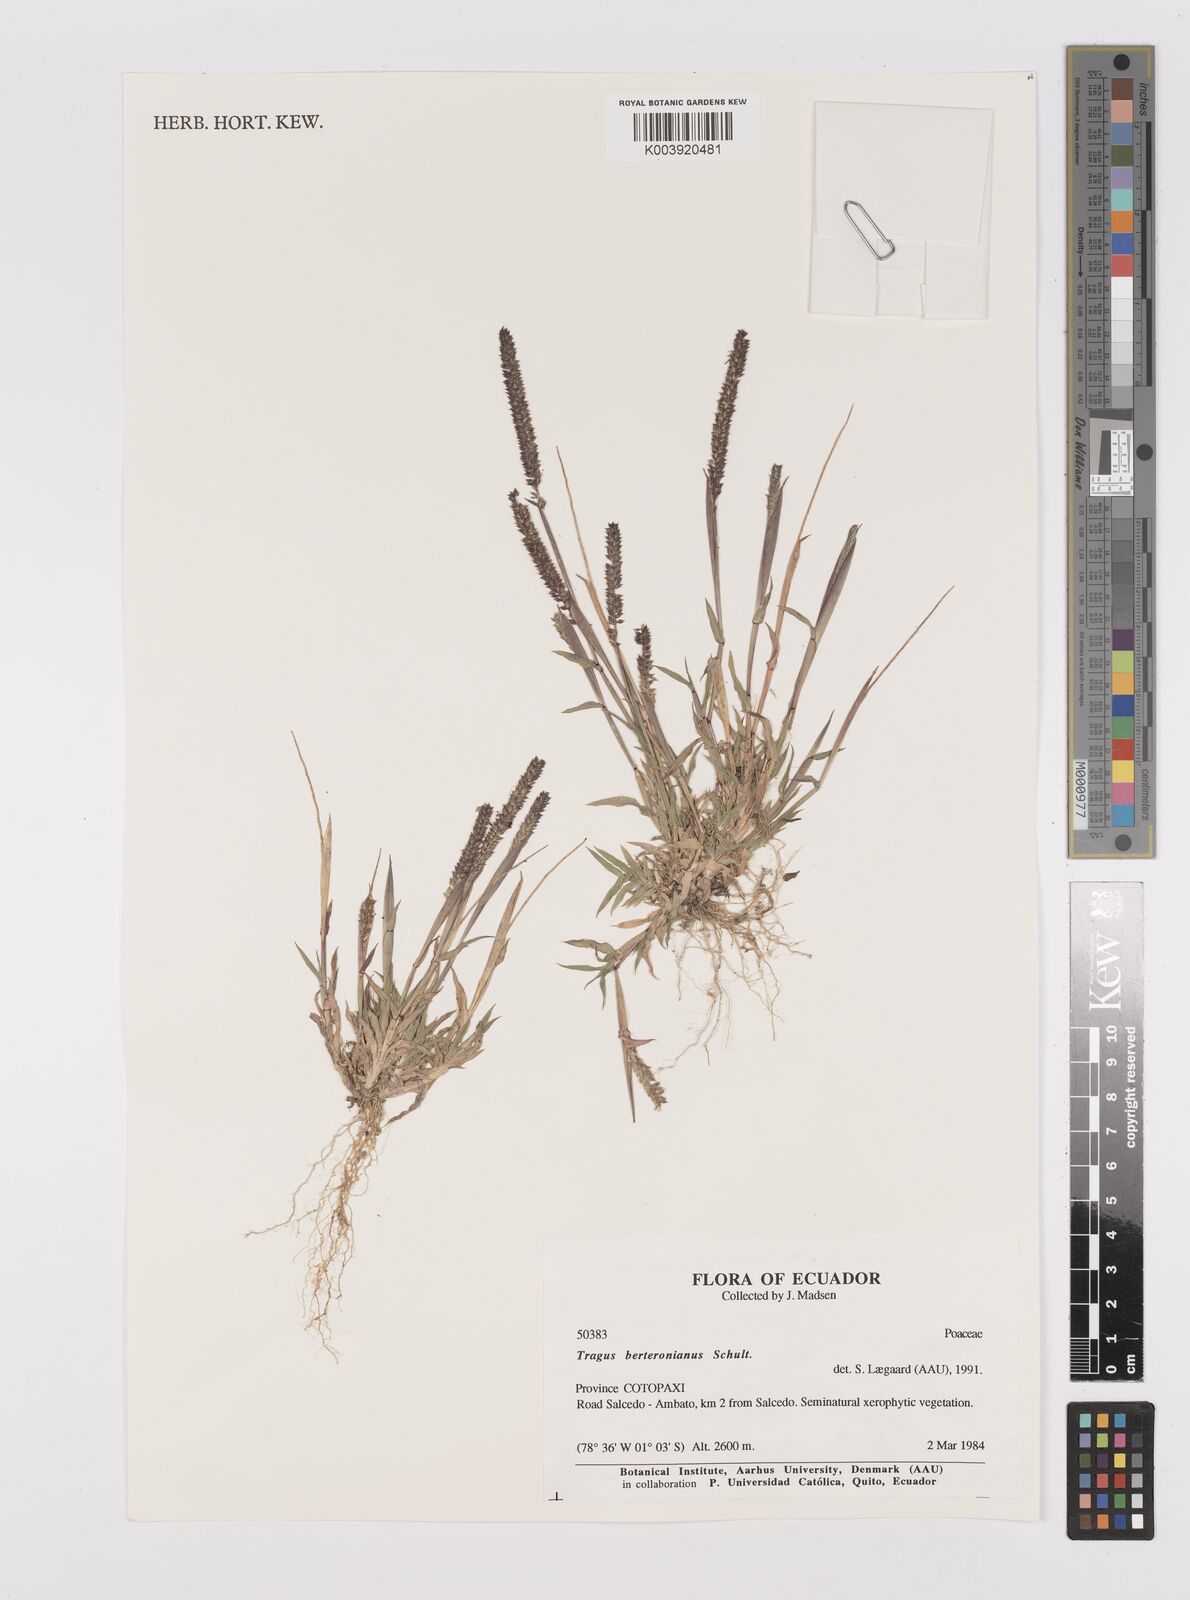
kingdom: Plantae
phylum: Tracheophyta
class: Liliopsida
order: Poales
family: Poaceae
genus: Tragus
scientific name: Tragus berteronianus
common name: African bur-grass
